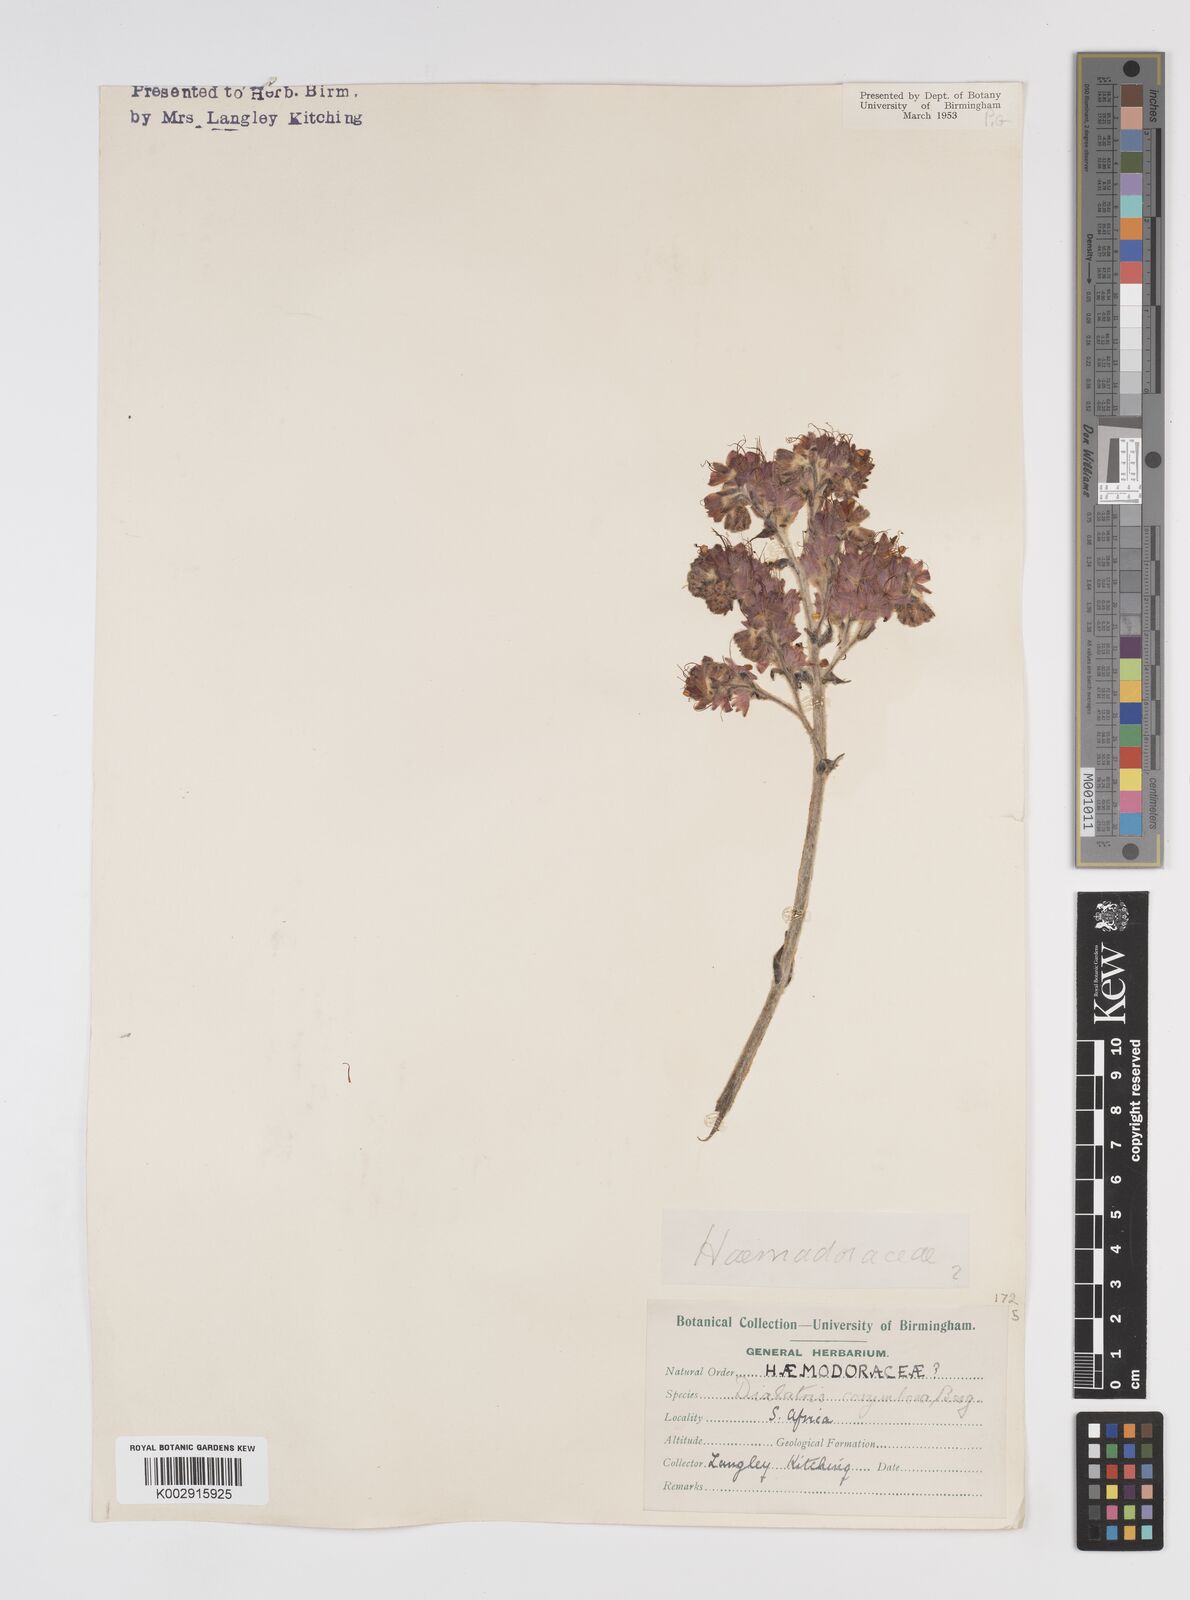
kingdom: Plantae
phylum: Tracheophyta
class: Liliopsida
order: Commelinales
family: Haemodoraceae
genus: Dilatris
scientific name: Dilatris corymbosa
